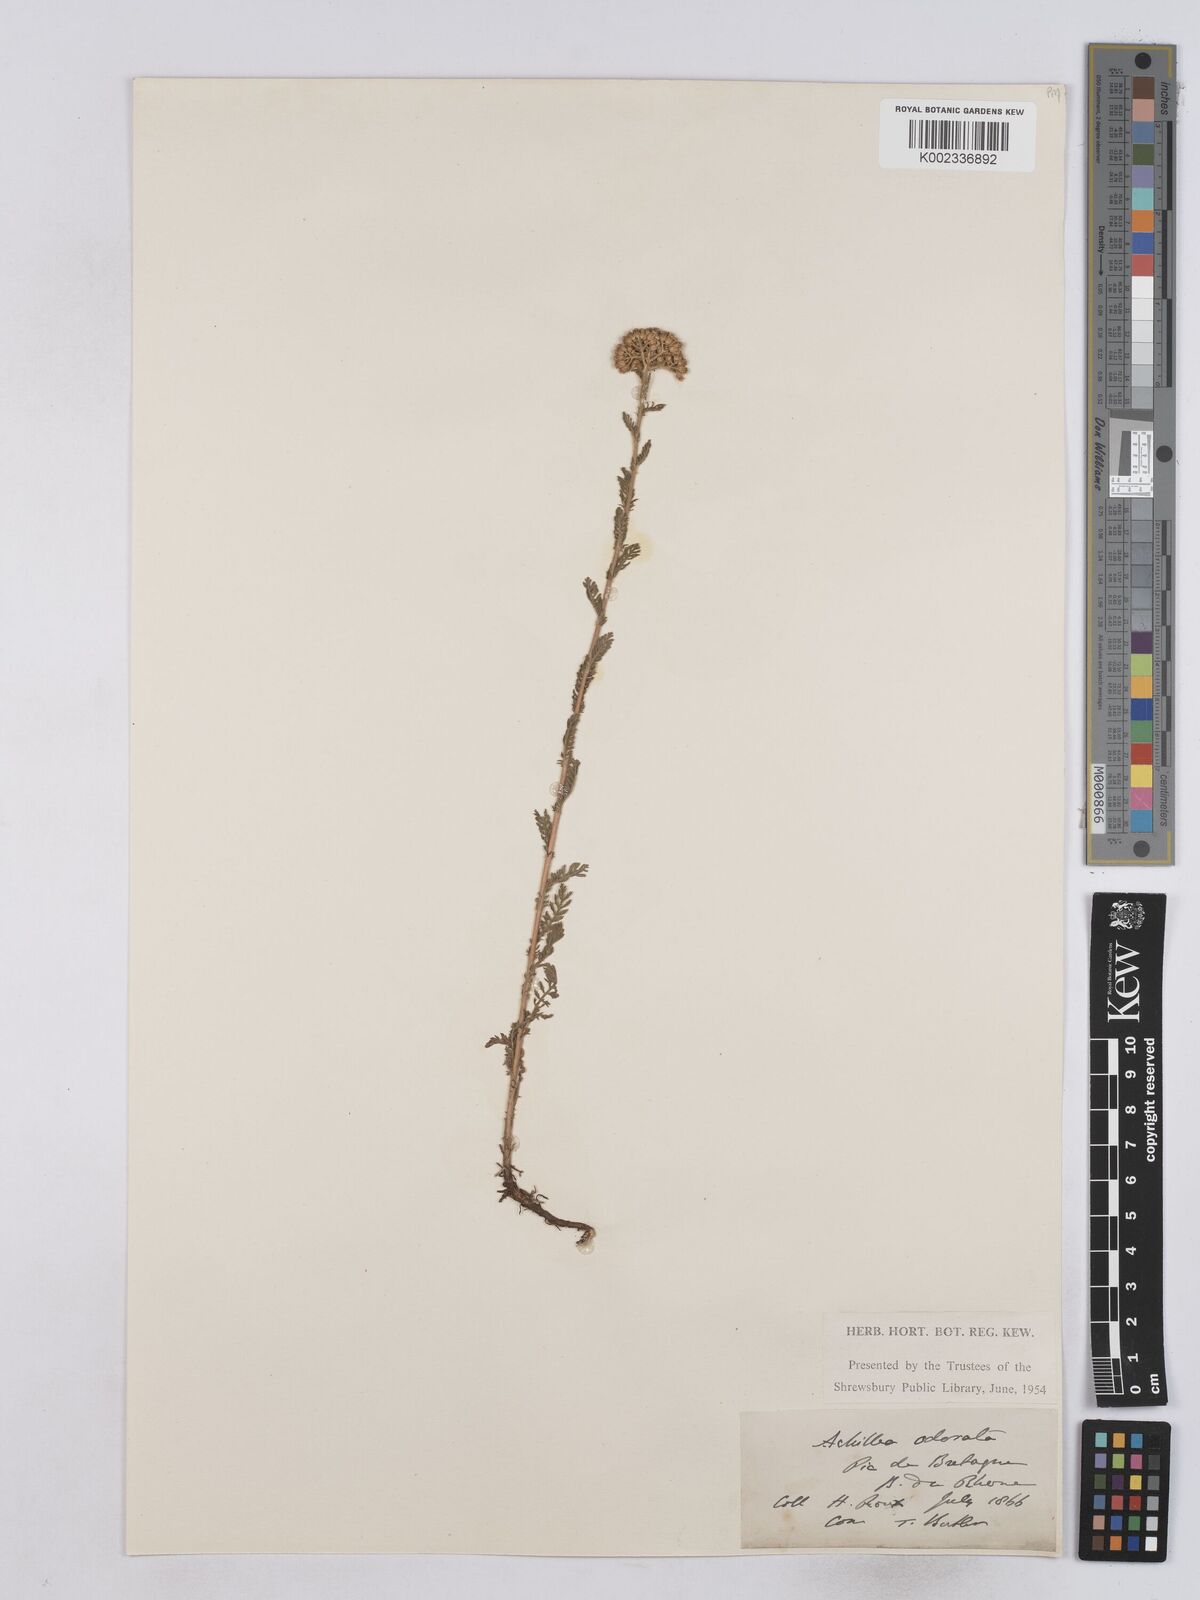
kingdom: Plantae
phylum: Tracheophyta
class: Magnoliopsida
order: Asterales
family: Asteraceae
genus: Achillea
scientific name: Achillea odorata
